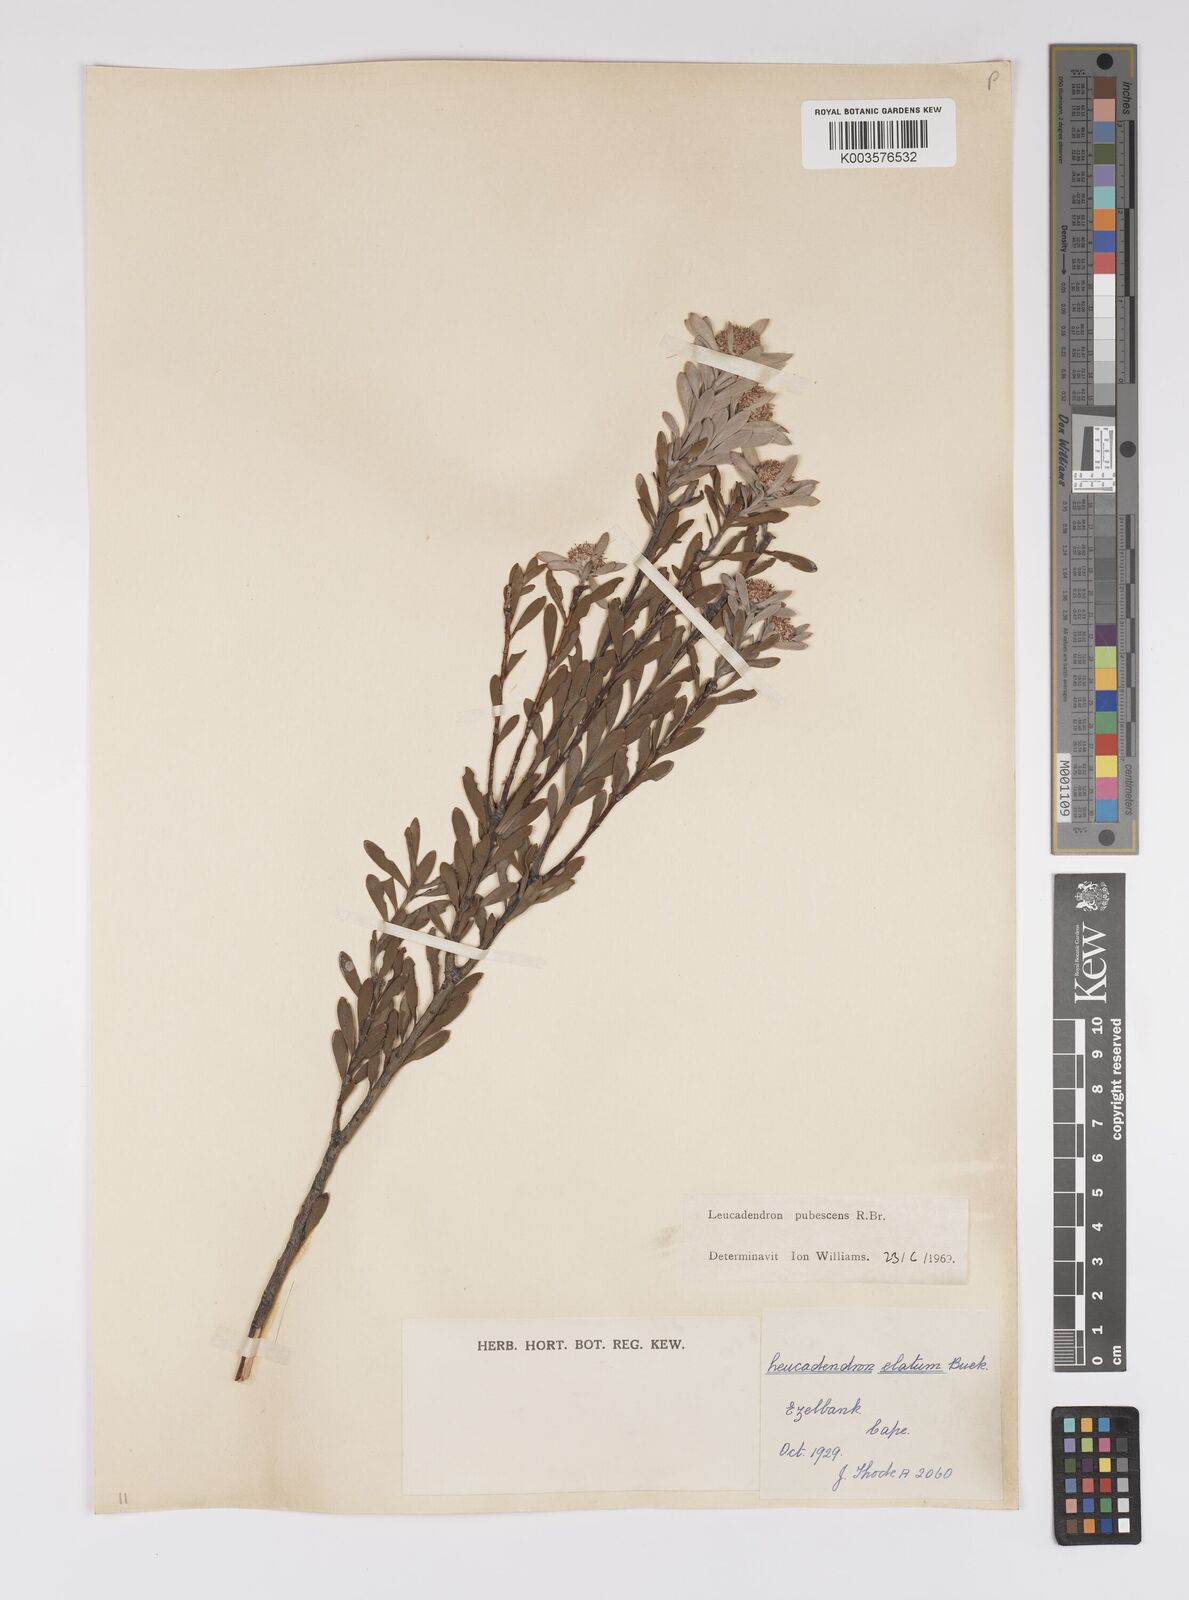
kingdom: Plantae
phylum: Tracheophyta
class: Magnoliopsida
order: Proteales
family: Proteaceae
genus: Leucadendron
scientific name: Leucadendron pubescens
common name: Grey conebush
